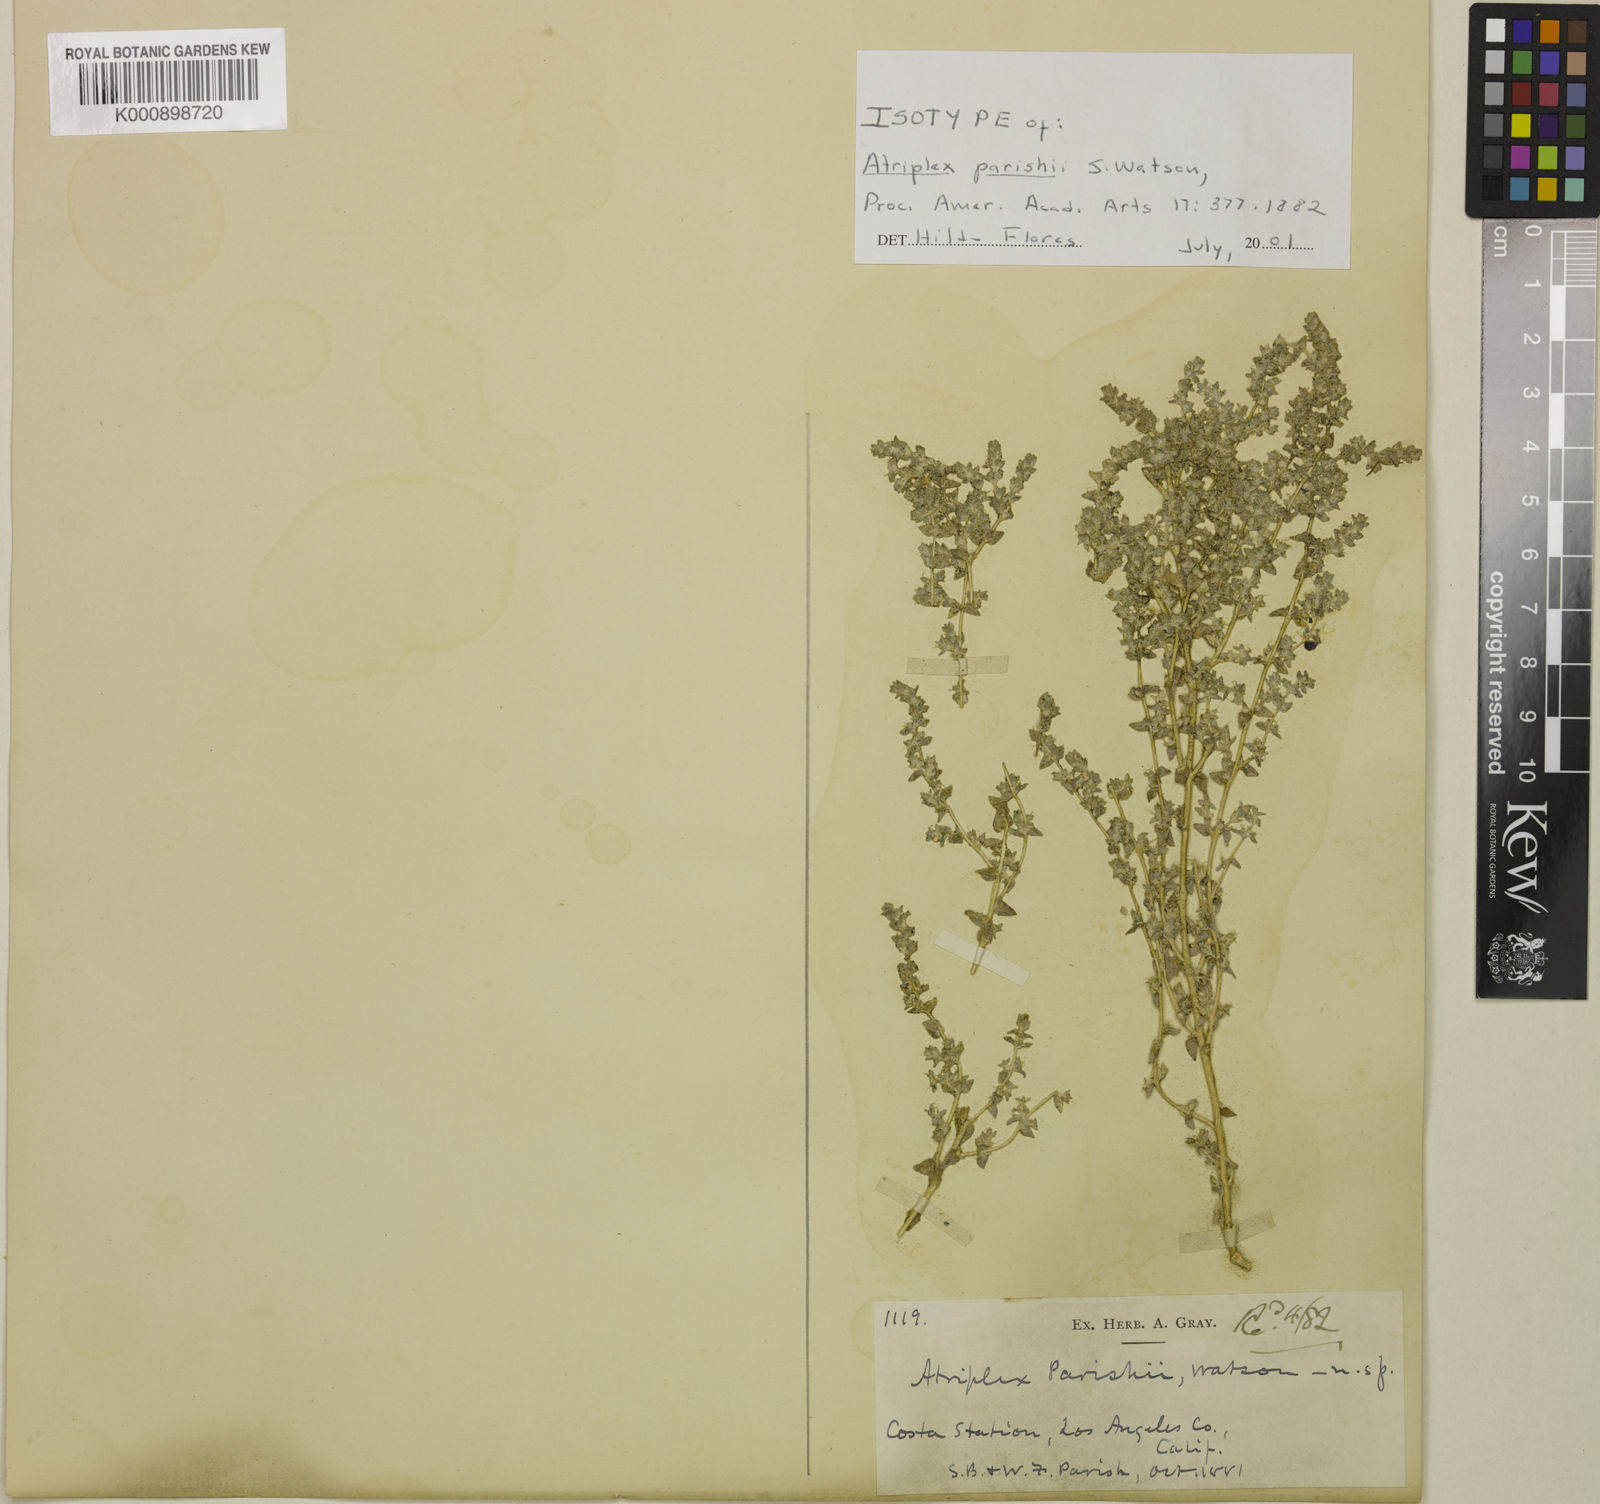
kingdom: Plantae
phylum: Tracheophyta
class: Magnoliopsida
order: Caryophyllales
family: Amaranthaceae
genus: Atriplex
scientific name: Atriplex parishii
